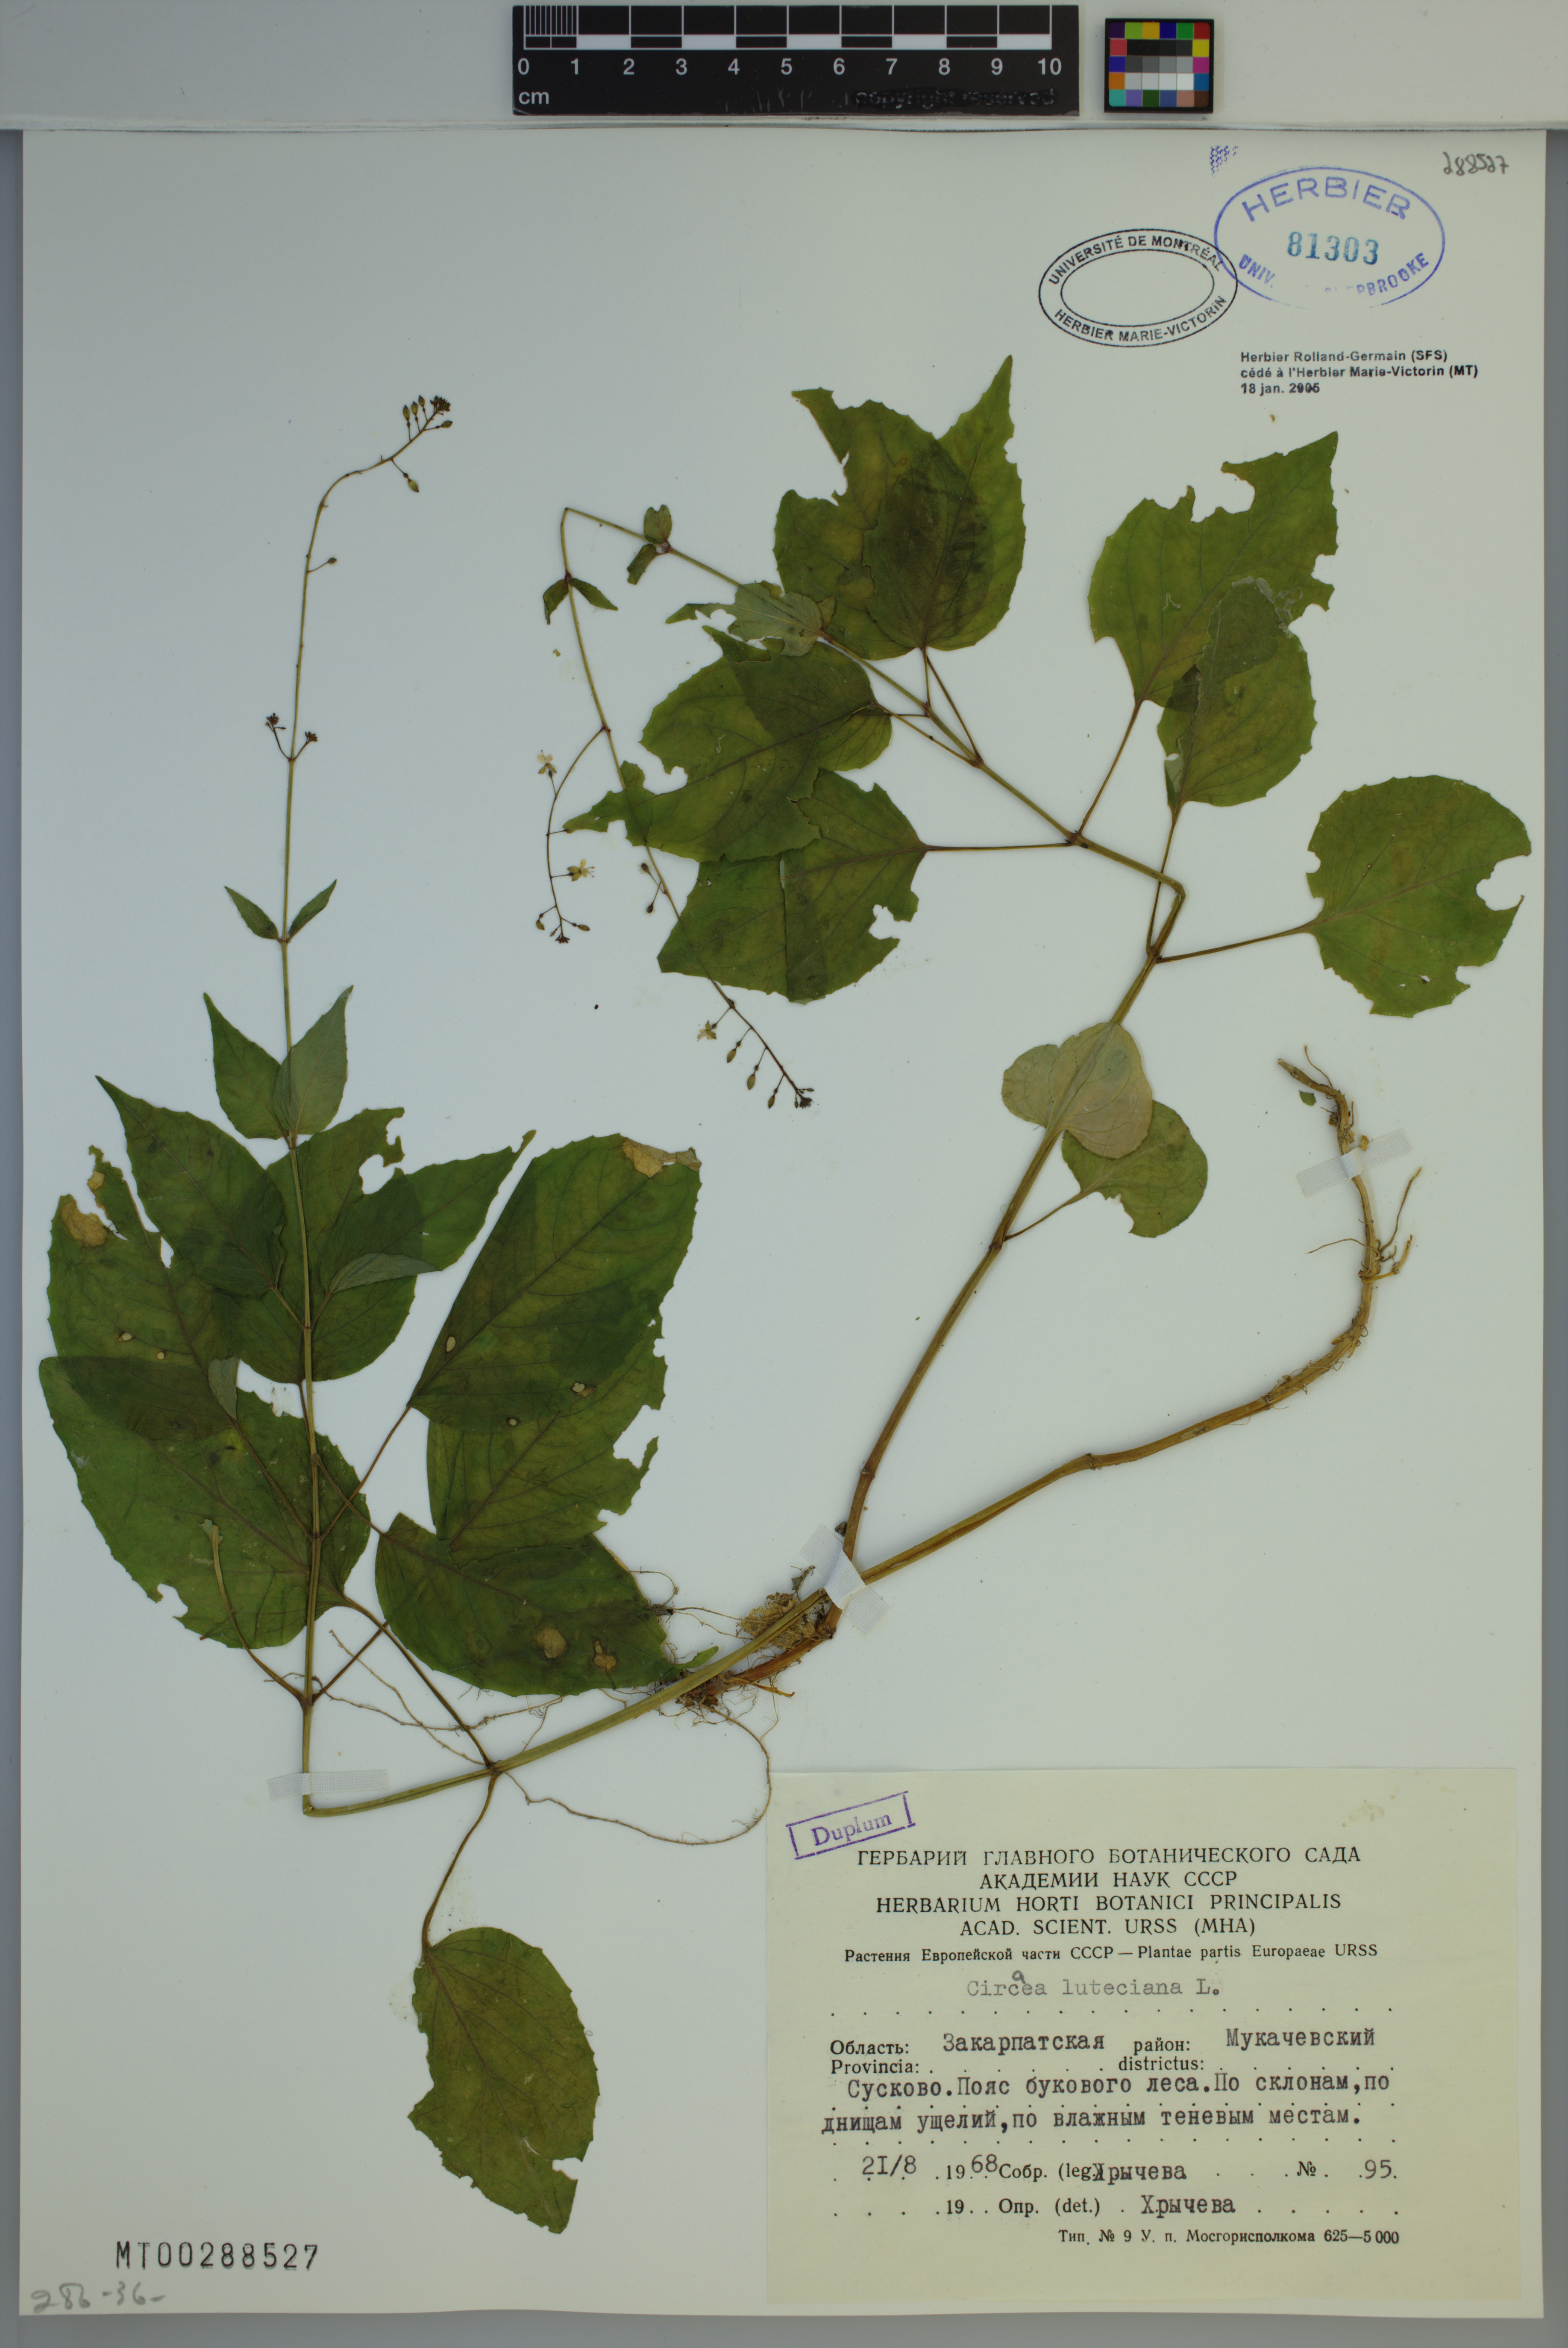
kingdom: Plantae
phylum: Tracheophyta
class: Magnoliopsida
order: Myrtales
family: Onagraceae
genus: Circaea
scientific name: Circaea lutetiana
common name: Enchanter's-nightshade
